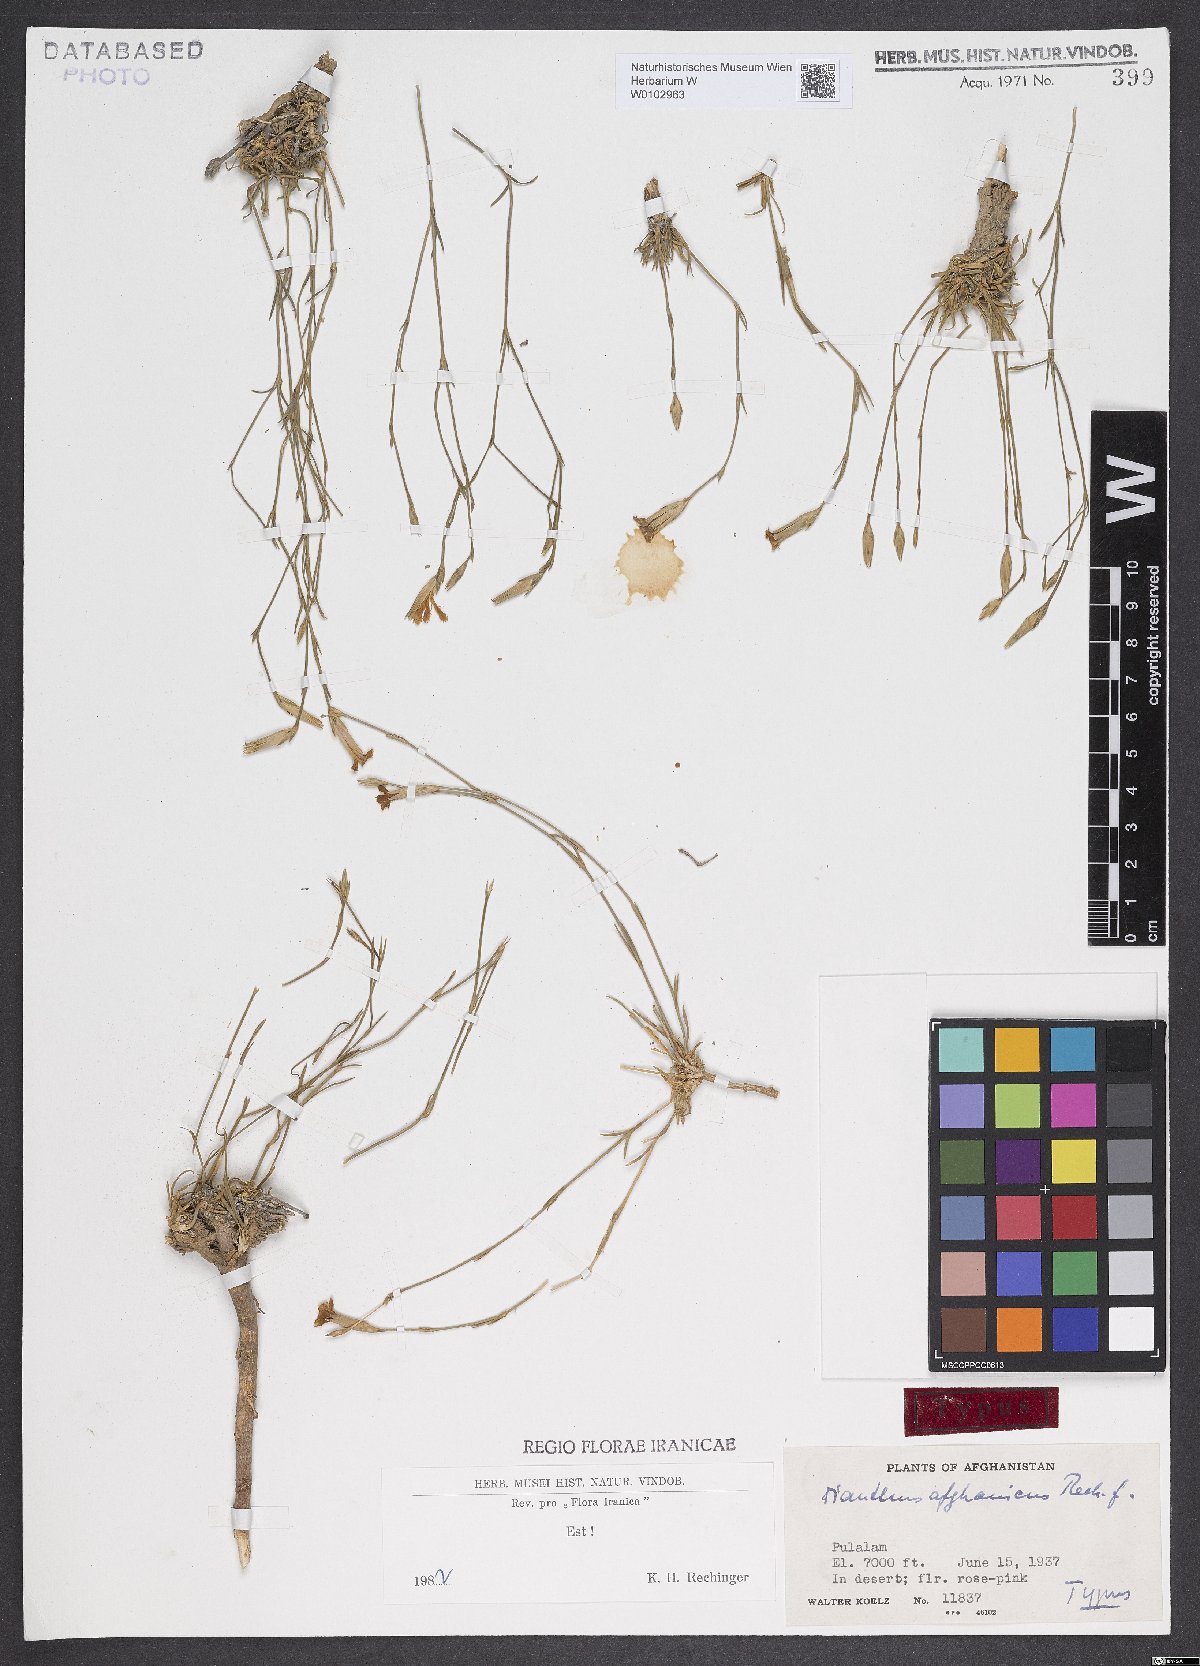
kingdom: Plantae
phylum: Tracheophyta
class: Magnoliopsida
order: Caryophyllales
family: Caryophyllaceae
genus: Dianthus
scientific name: Dianthus afghanicus
